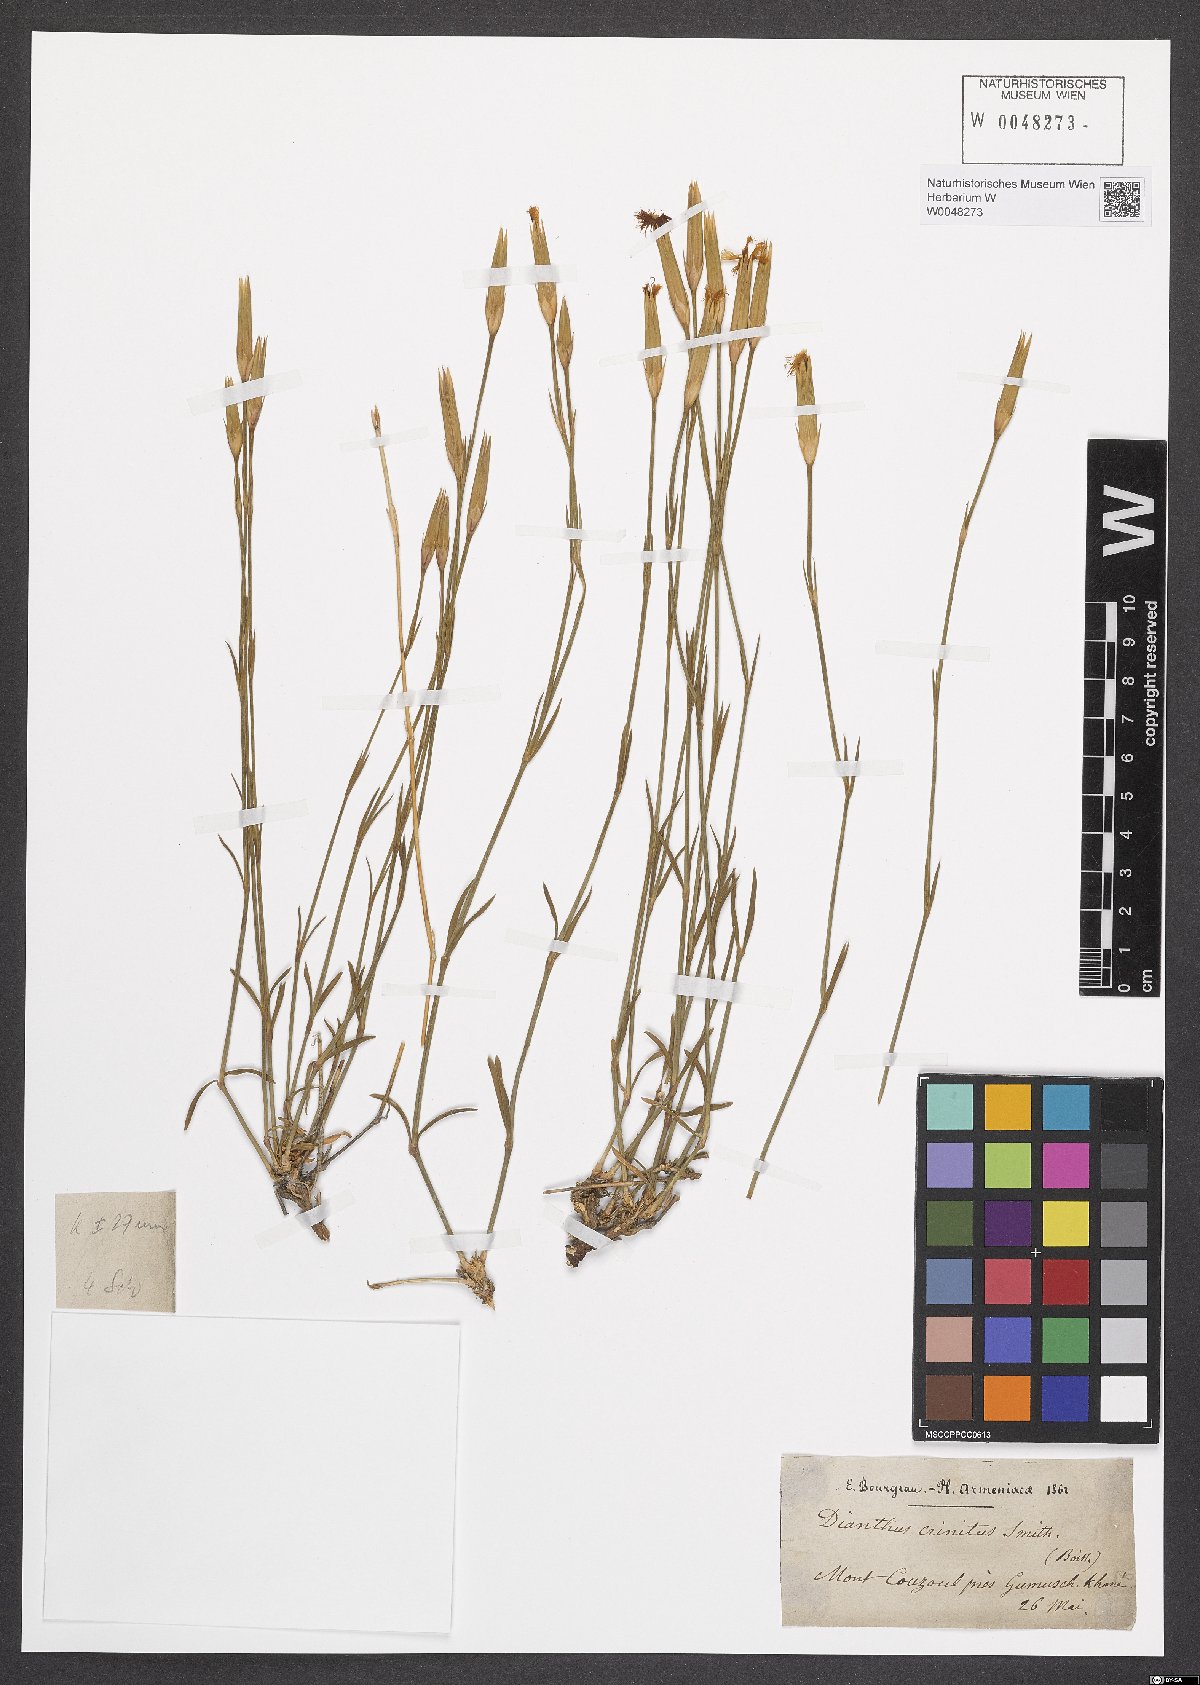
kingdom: Plantae
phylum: Tracheophyta
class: Magnoliopsida
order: Caryophyllales
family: Caryophyllaceae
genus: Dianthus
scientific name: Dianthus crinitus
